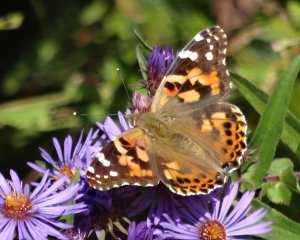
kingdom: Animalia
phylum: Arthropoda
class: Insecta
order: Lepidoptera
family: Nymphalidae
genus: Vanessa
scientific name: Vanessa cardui
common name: Painted Lady
